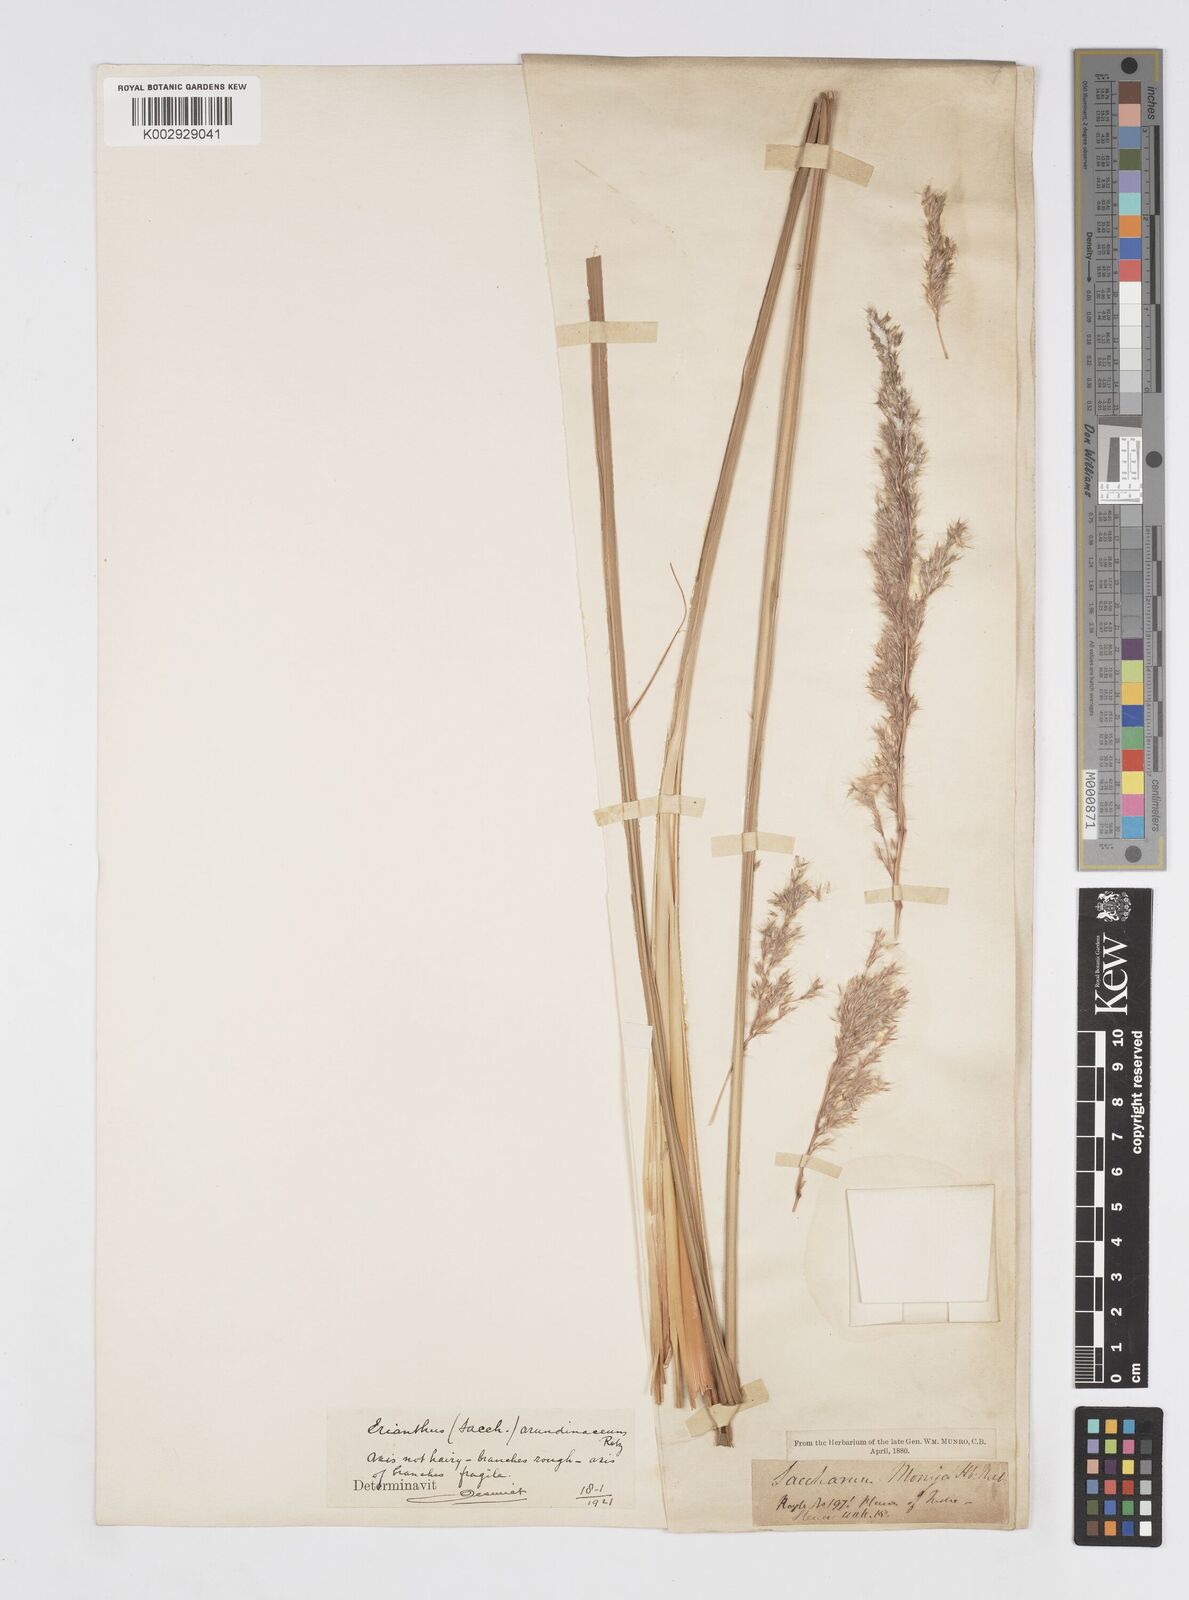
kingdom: Plantae
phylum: Tracheophyta
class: Liliopsida
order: Poales
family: Poaceae
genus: Tripidium
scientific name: Tripidium arundinaceum
